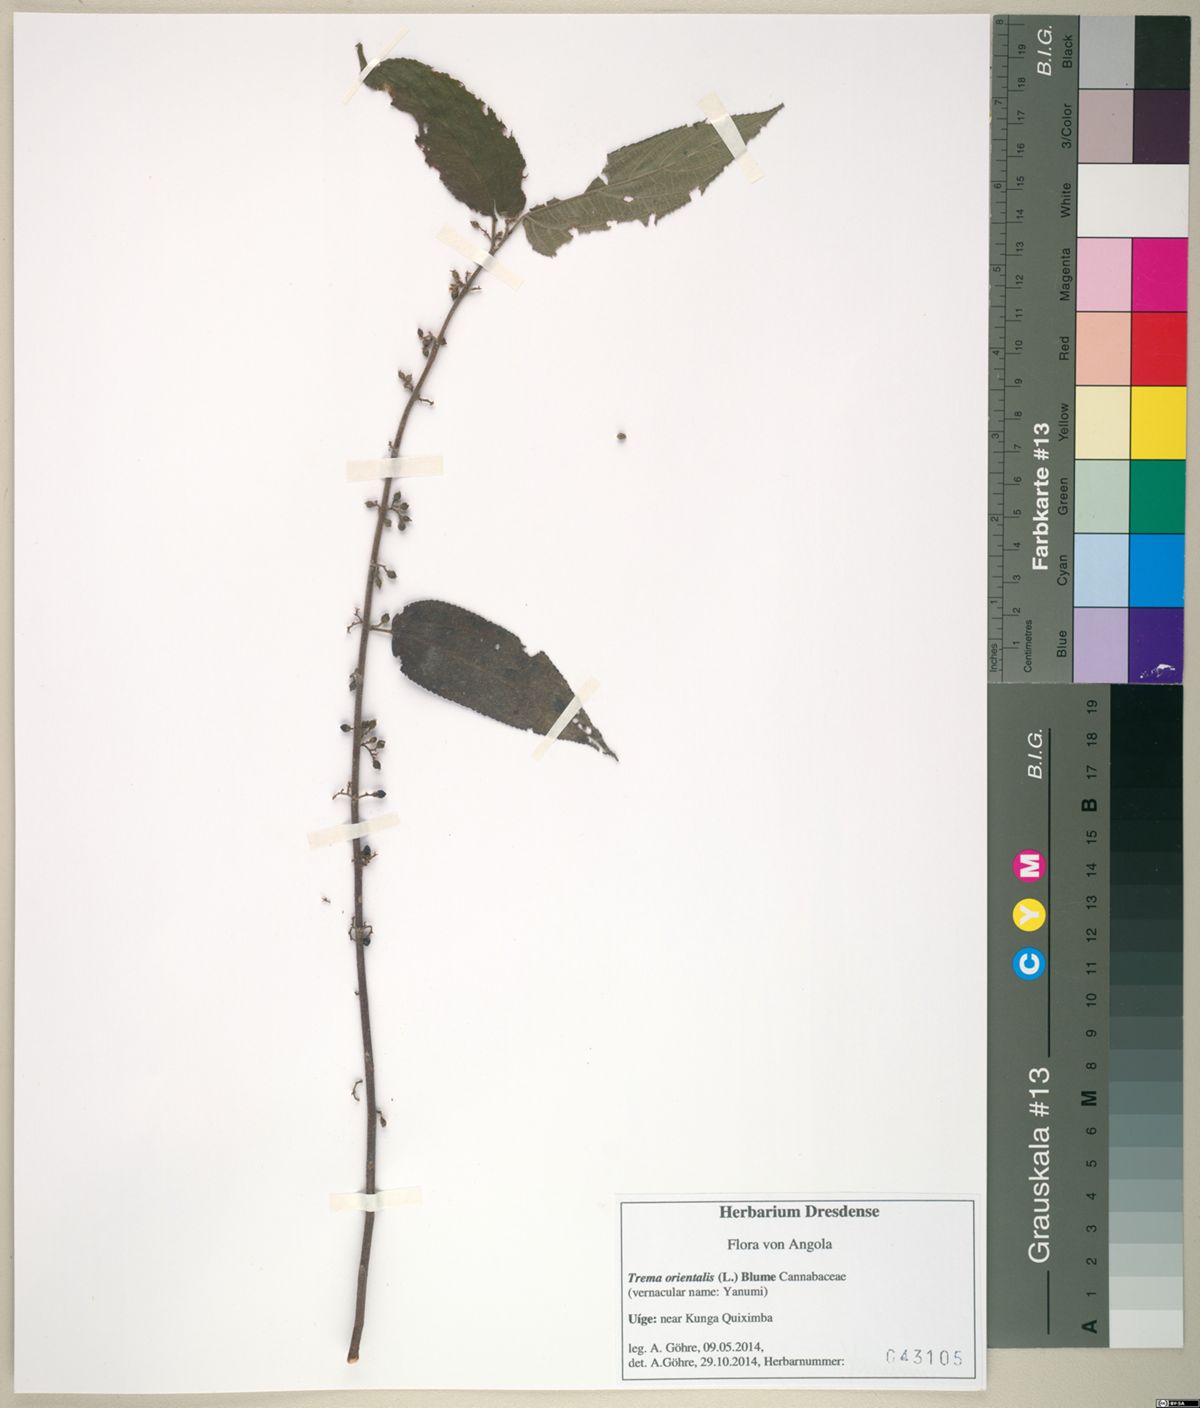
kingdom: Plantae
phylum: Tracheophyta
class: Magnoliopsida
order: Rosales
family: Cannabaceae
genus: Trema
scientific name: Trema orientale
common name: Indian charcoal tree
